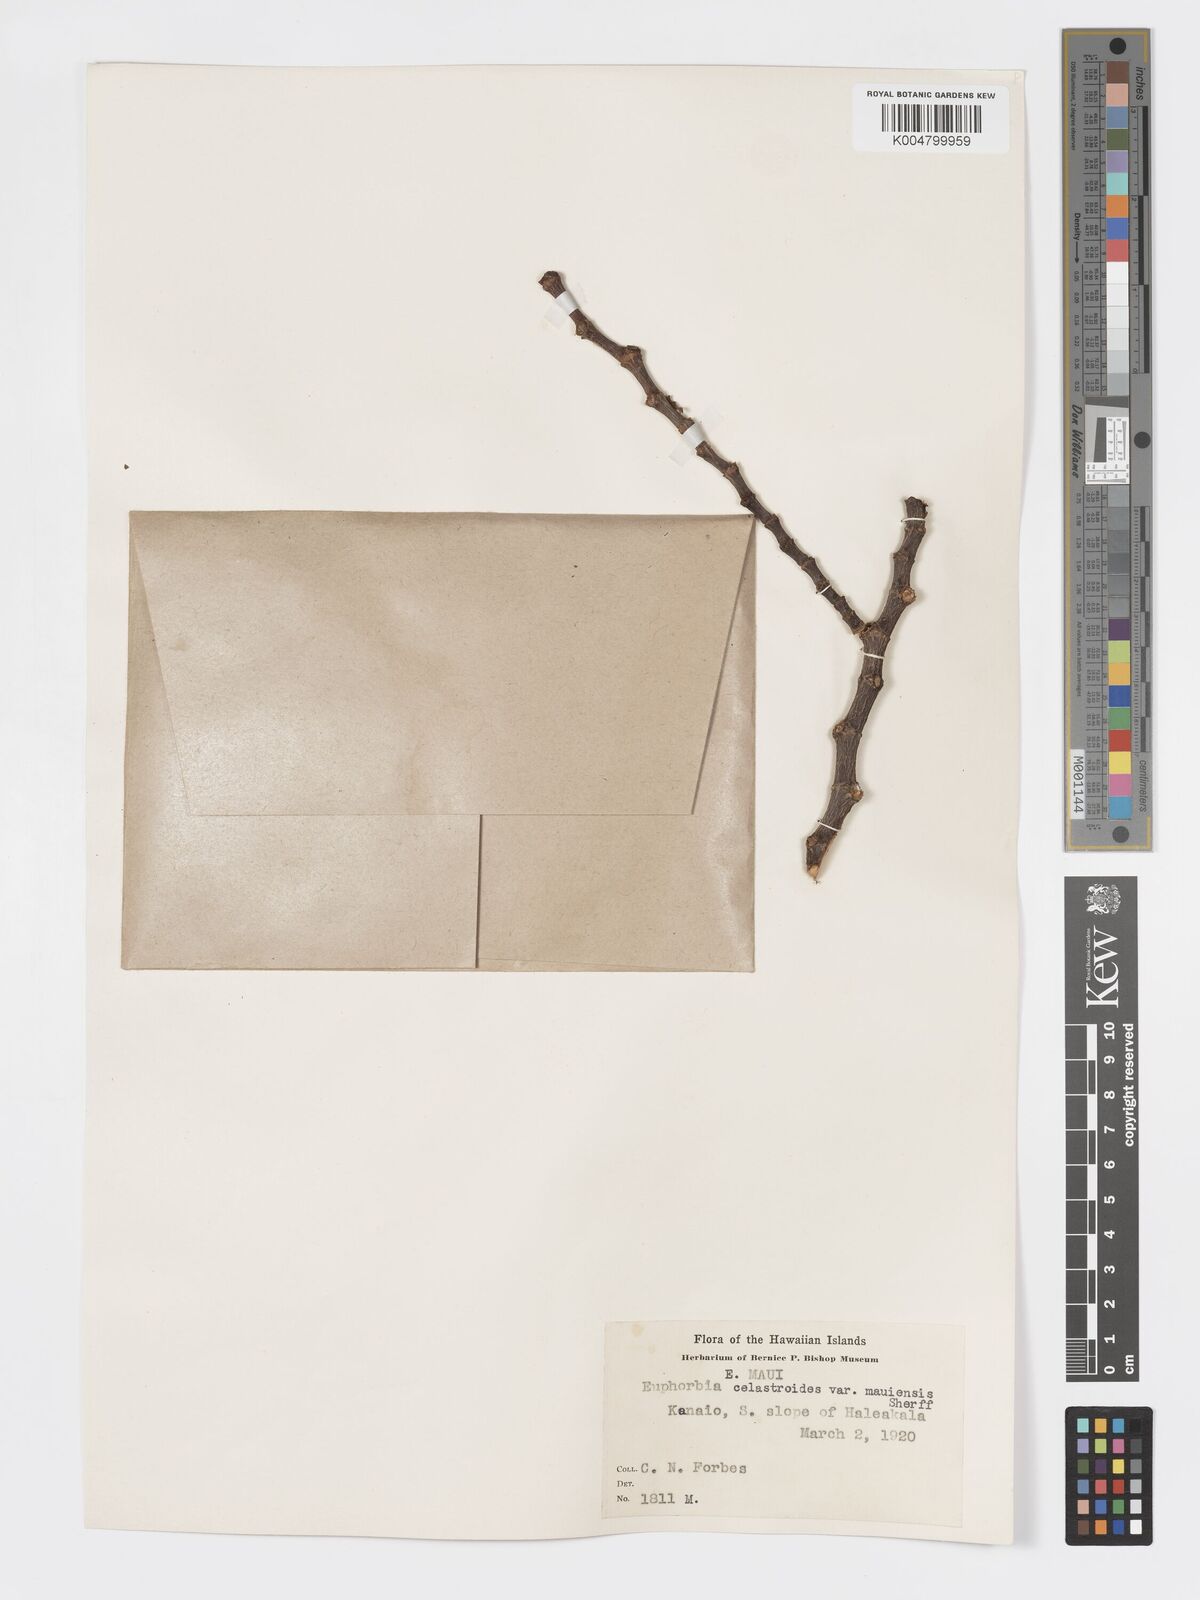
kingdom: Plantae
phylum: Tracheophyta
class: Magnoliopsida
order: Malpighiales
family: Euphorbiaceae
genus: Euphorbia
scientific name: Euphorbia celastroides
